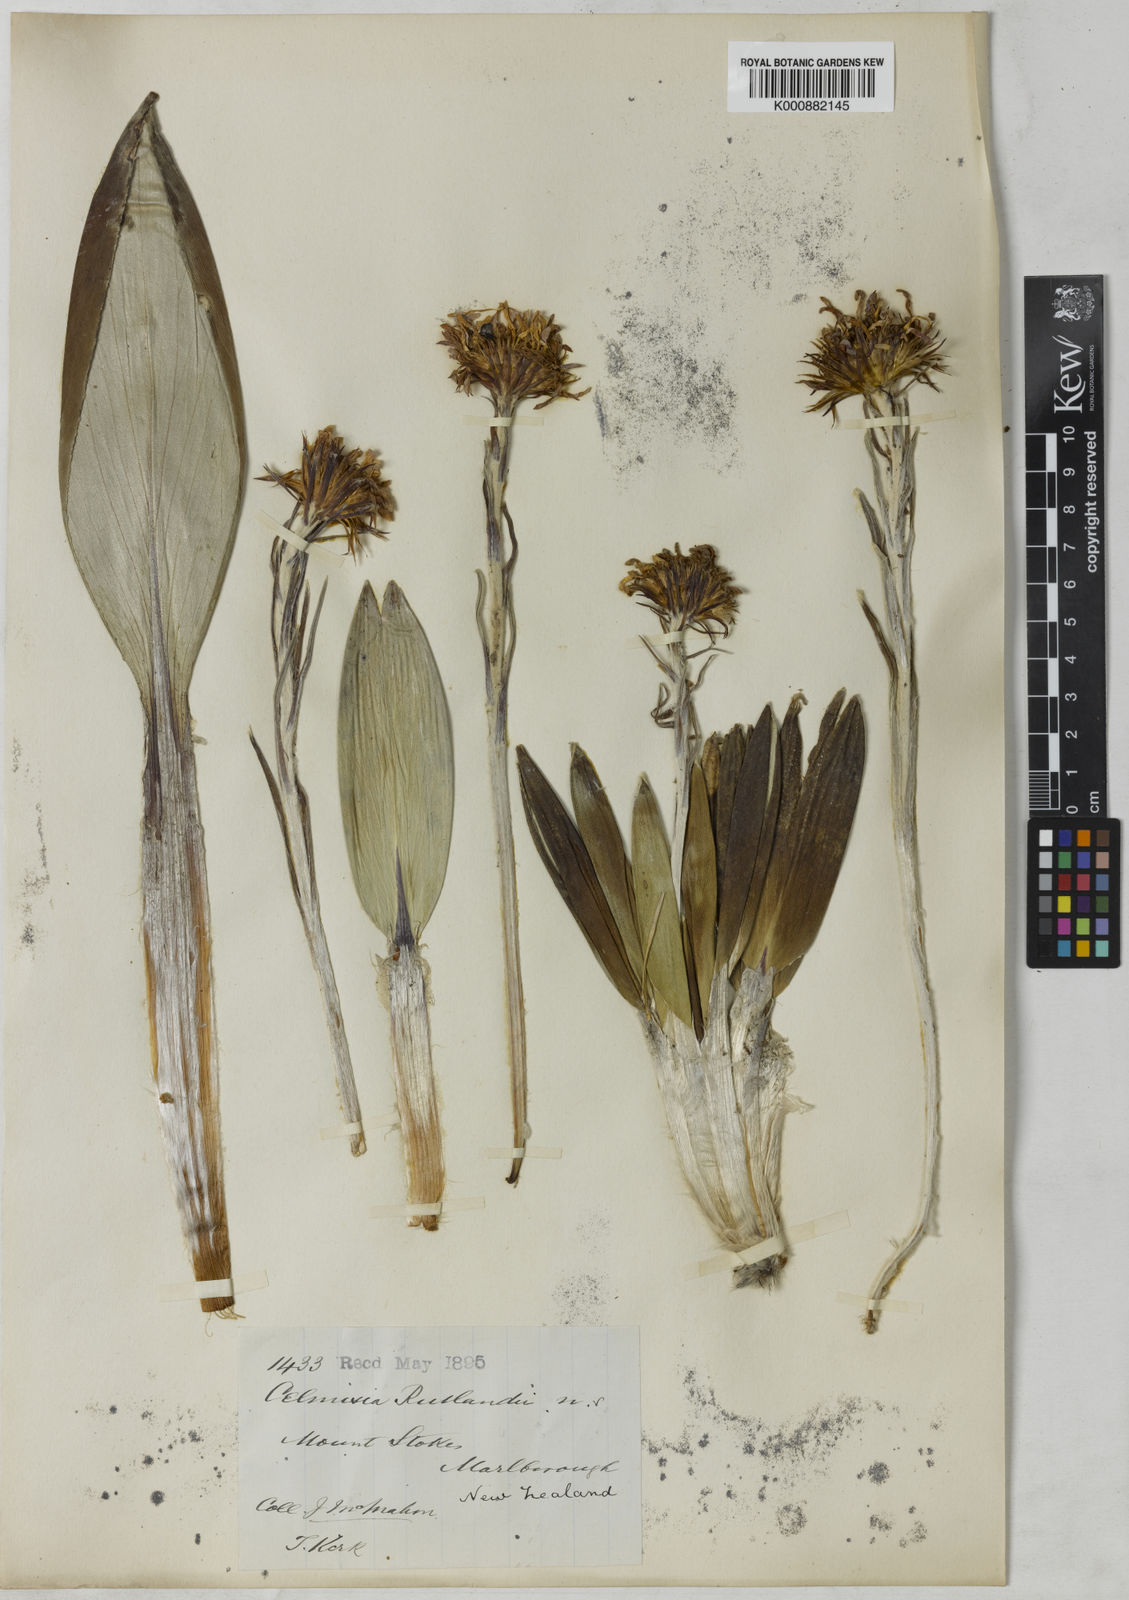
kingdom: Plantae
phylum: Tracheophyta
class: Magnoliopsida
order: Asterales
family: Asteraceae
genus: Celmisia
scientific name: Celmisia rutlandii
